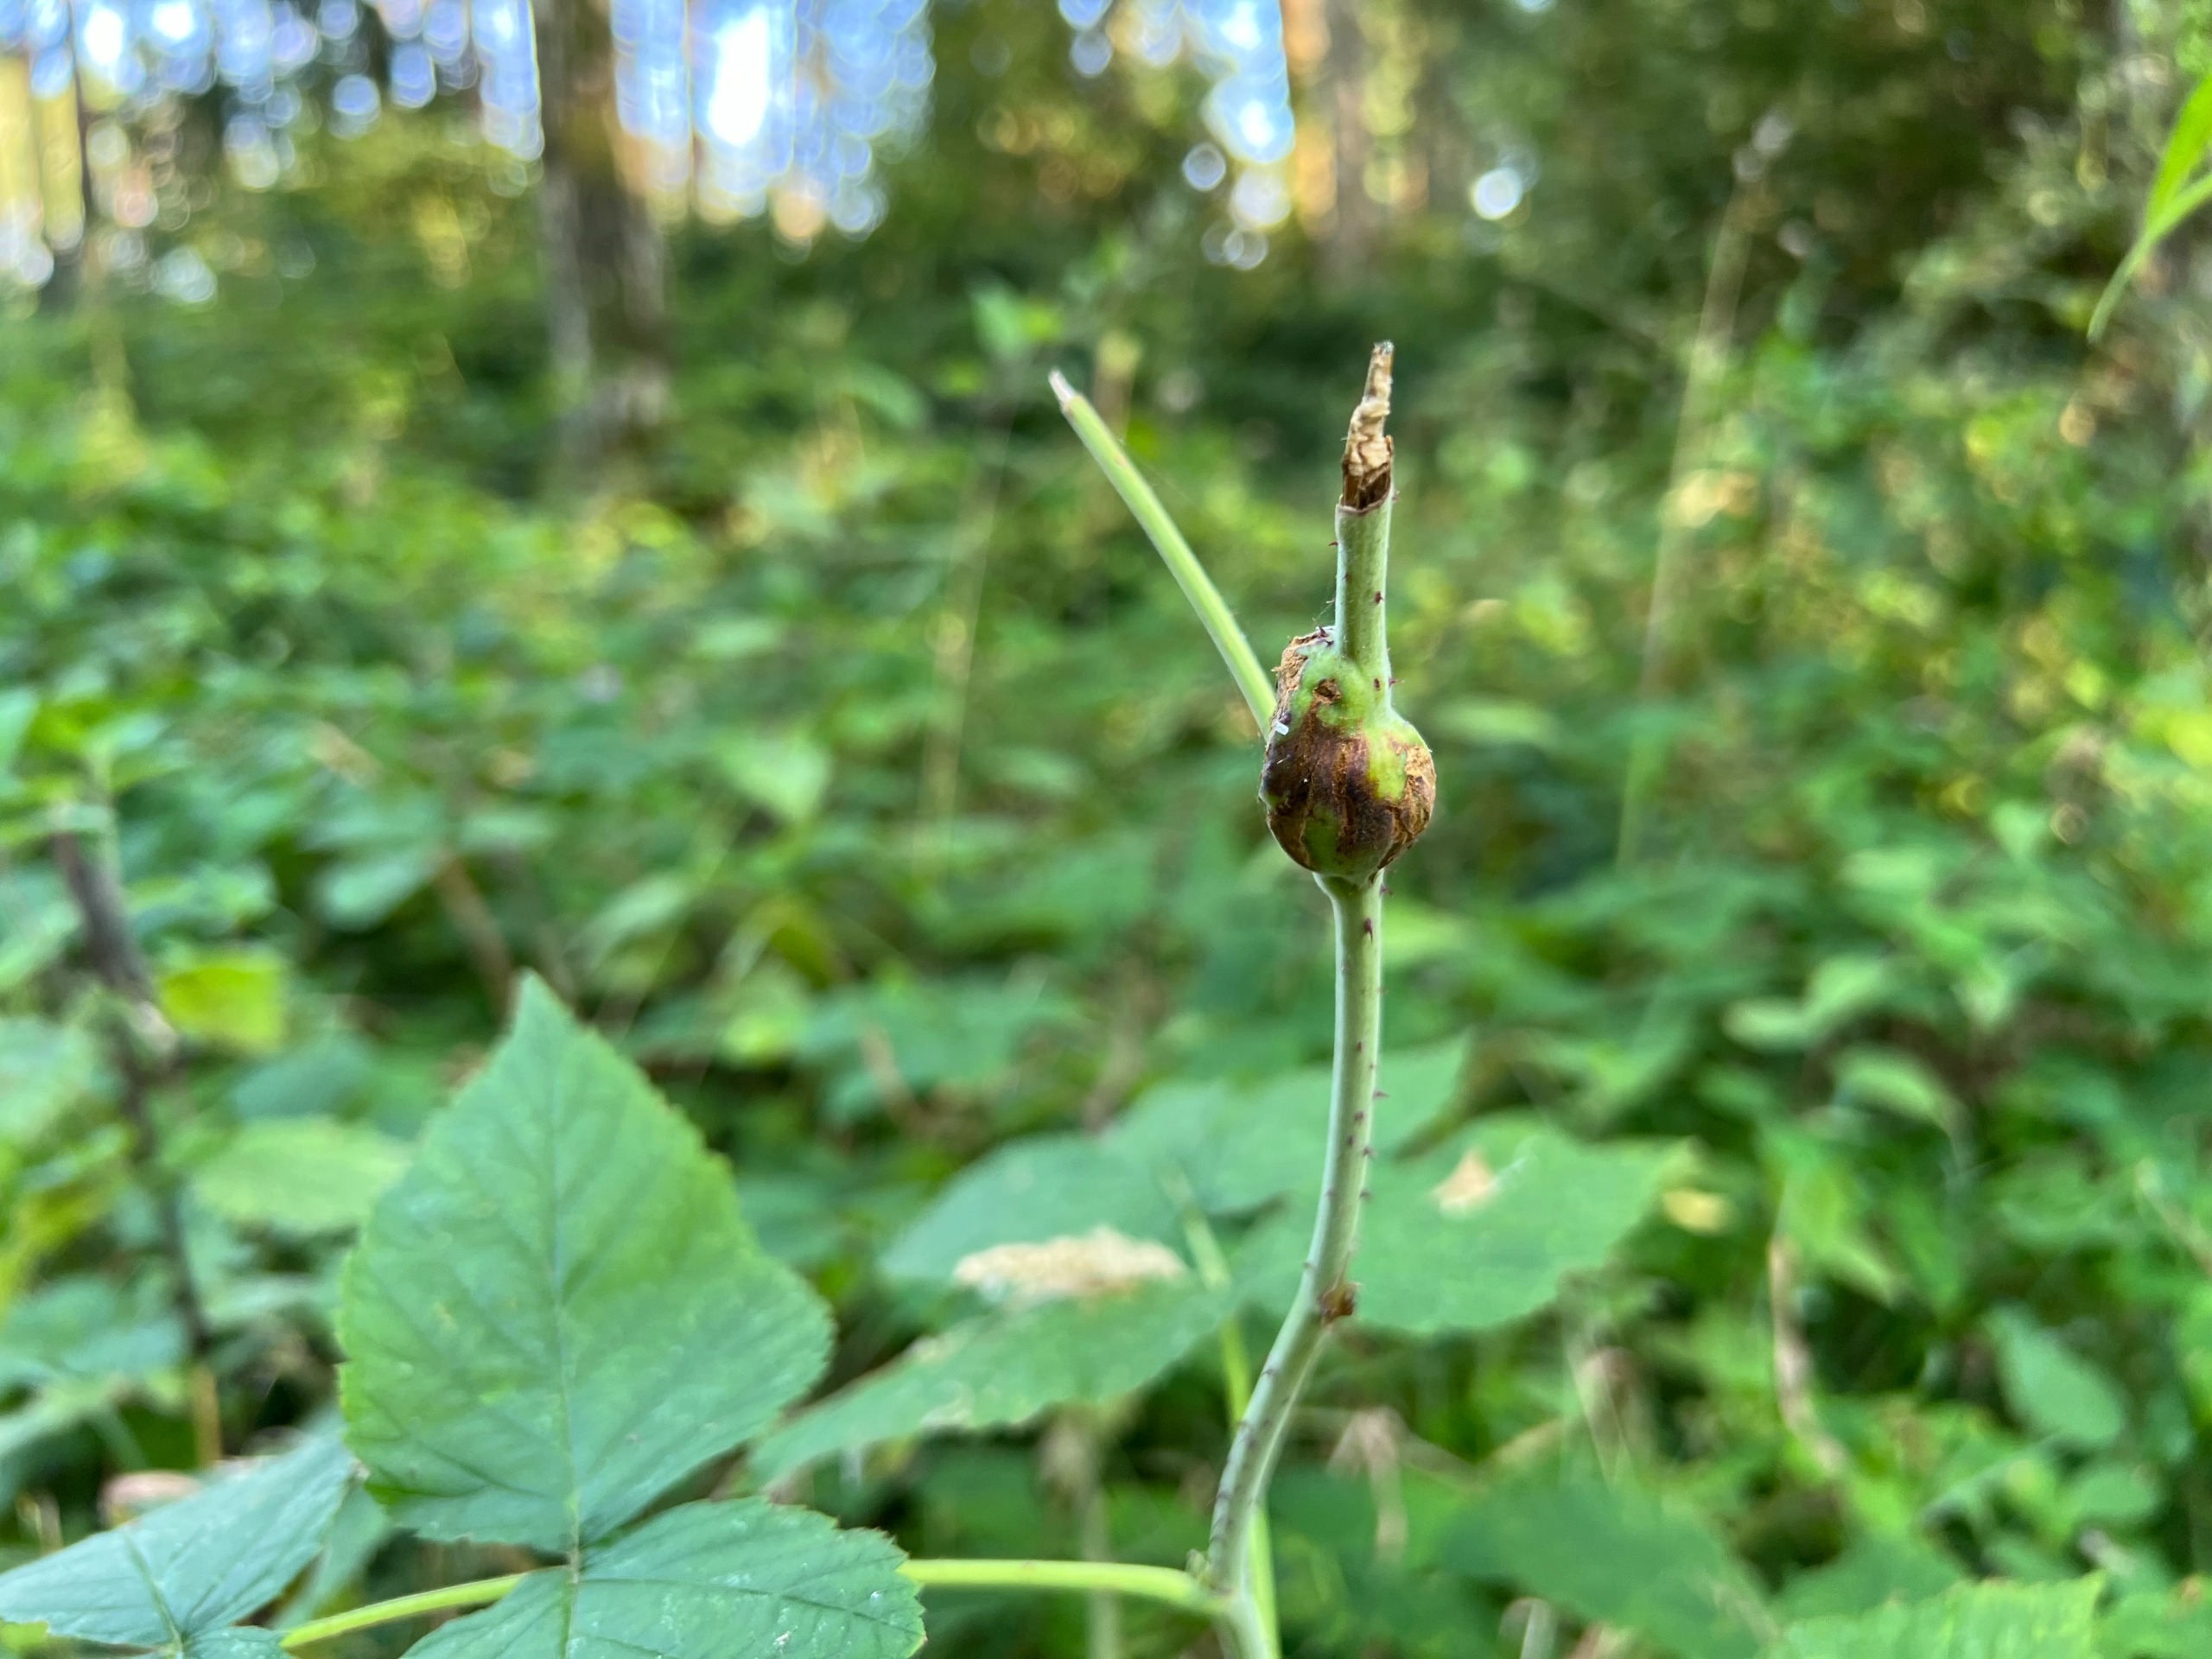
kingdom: Animalia
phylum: Arthropoda
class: Insecta
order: Diptera
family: Cecidomyiidae
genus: Lasioptera
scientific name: Lasioptera rubi
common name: Hindbærstængelgalmyg
